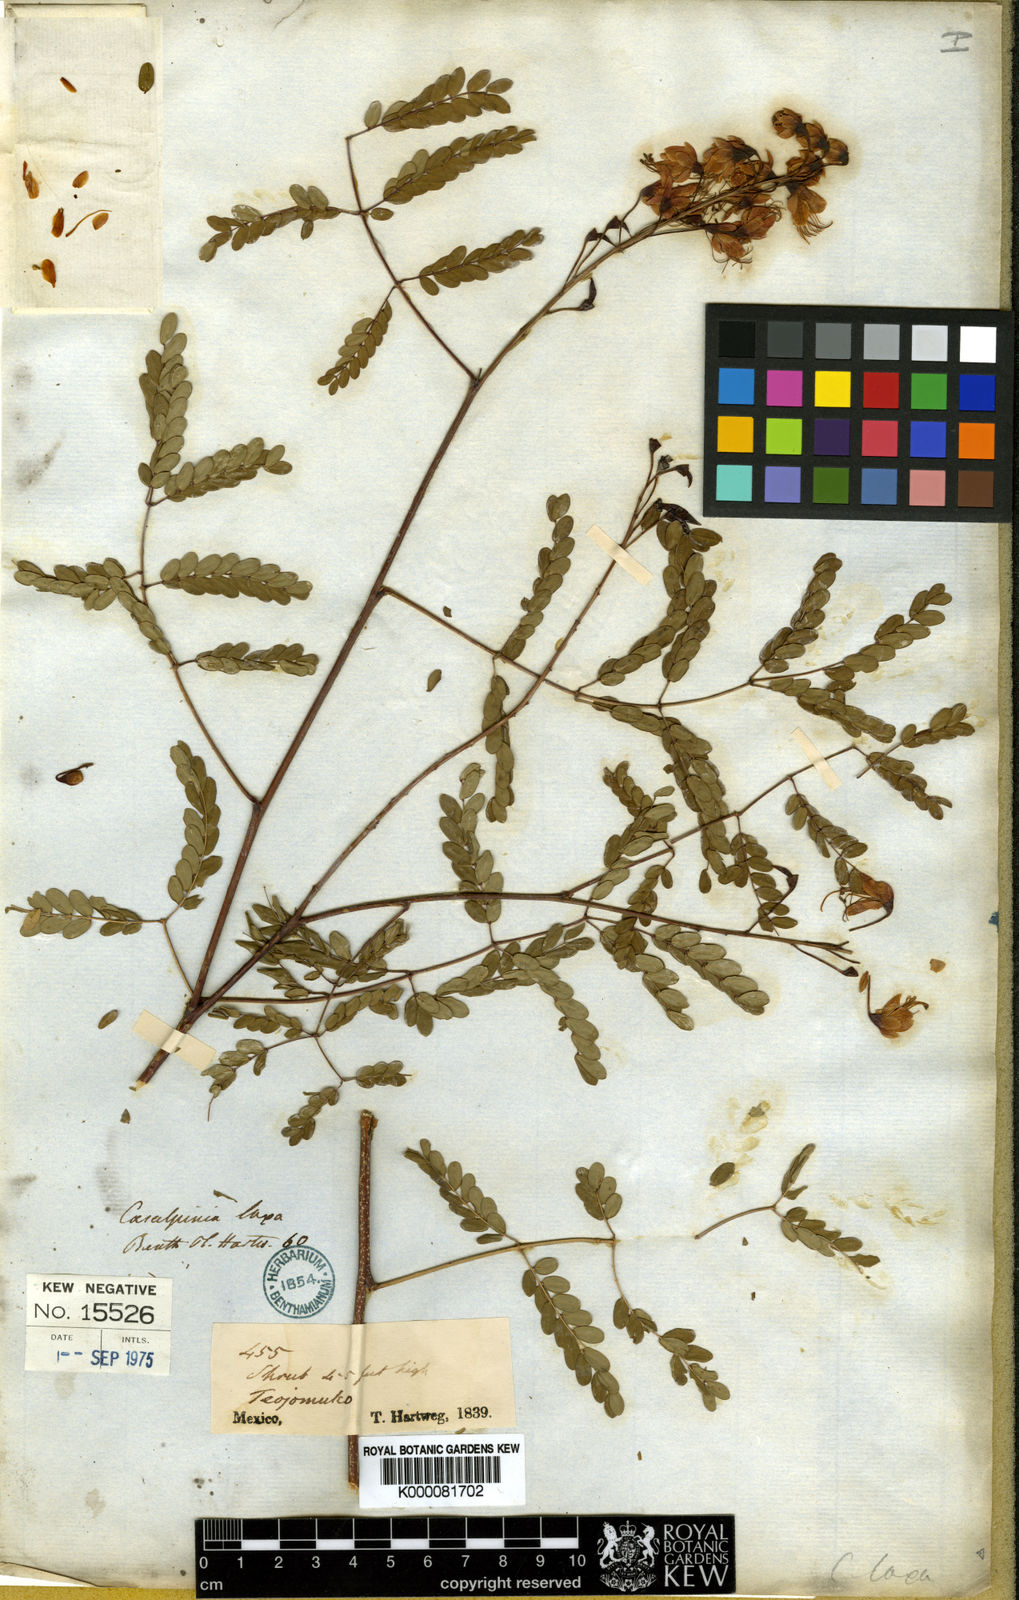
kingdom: Plantae
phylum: Tracheophyta
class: Magnoliopsida
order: Fabales
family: Fabaceae
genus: Erythrostemon
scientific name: Erythrostemon laxus
